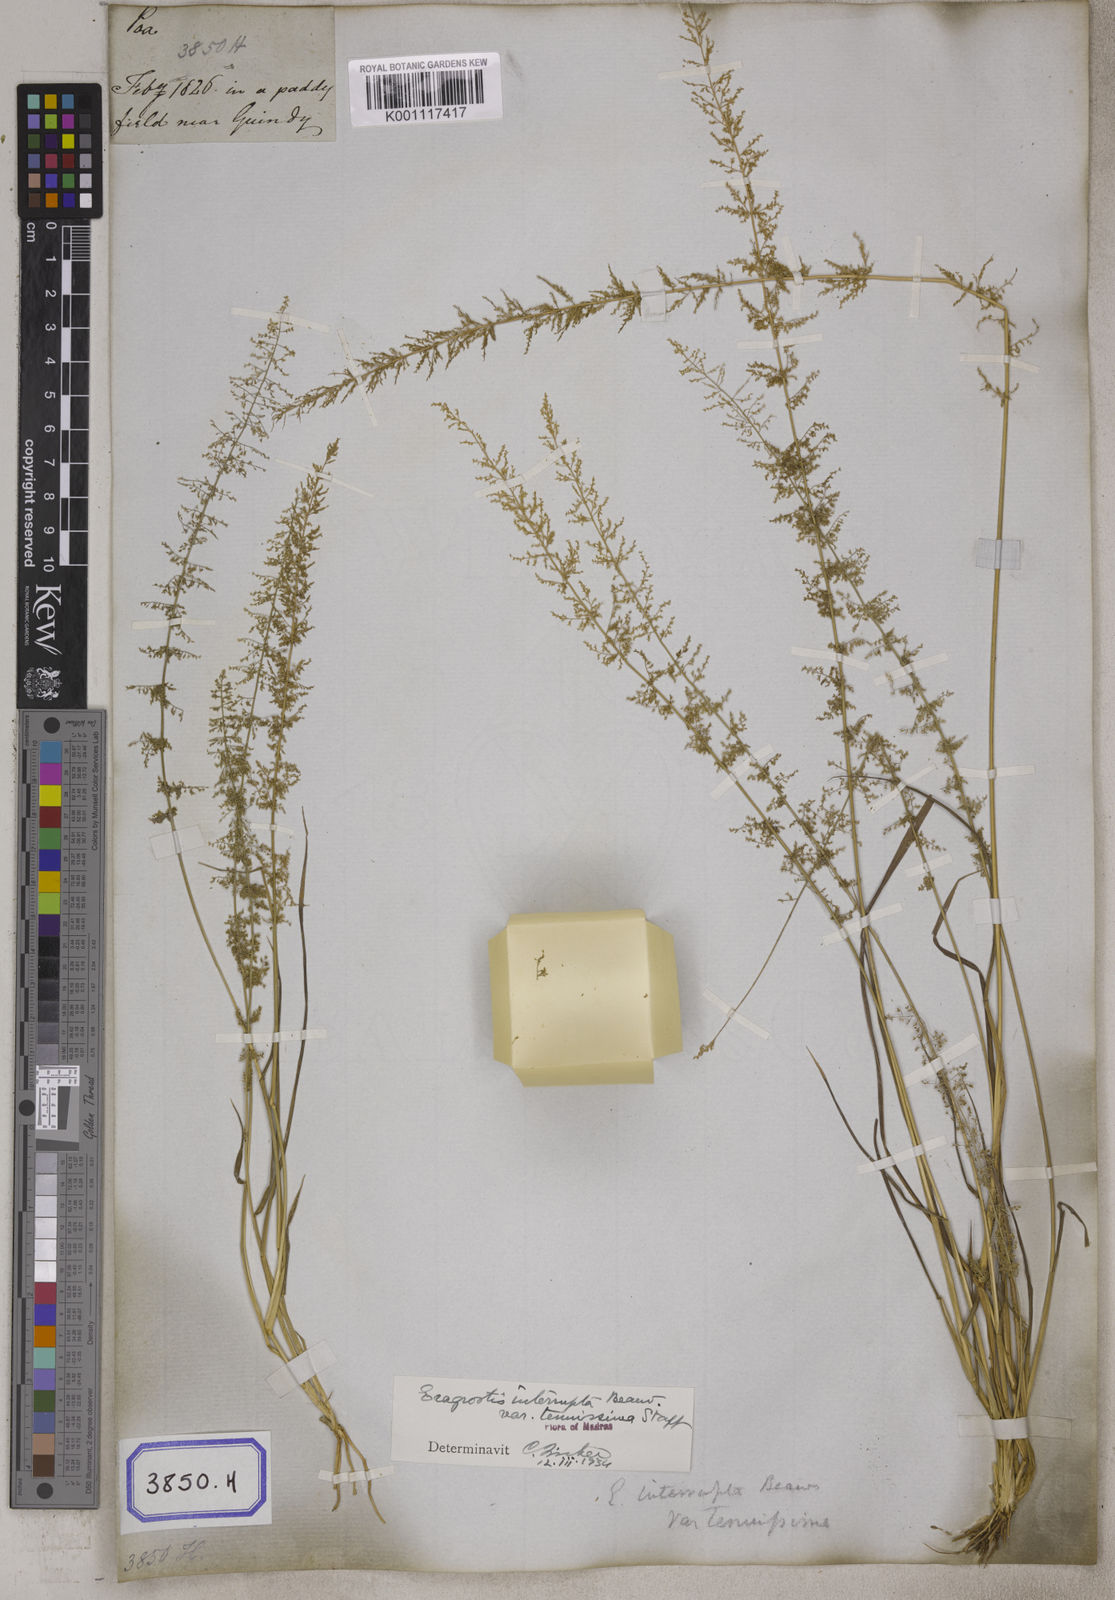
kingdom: Plantae
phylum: Tracheophyta
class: Liliopsida
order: Poales
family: Poaceae
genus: Eragrostis
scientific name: Eragrostis
